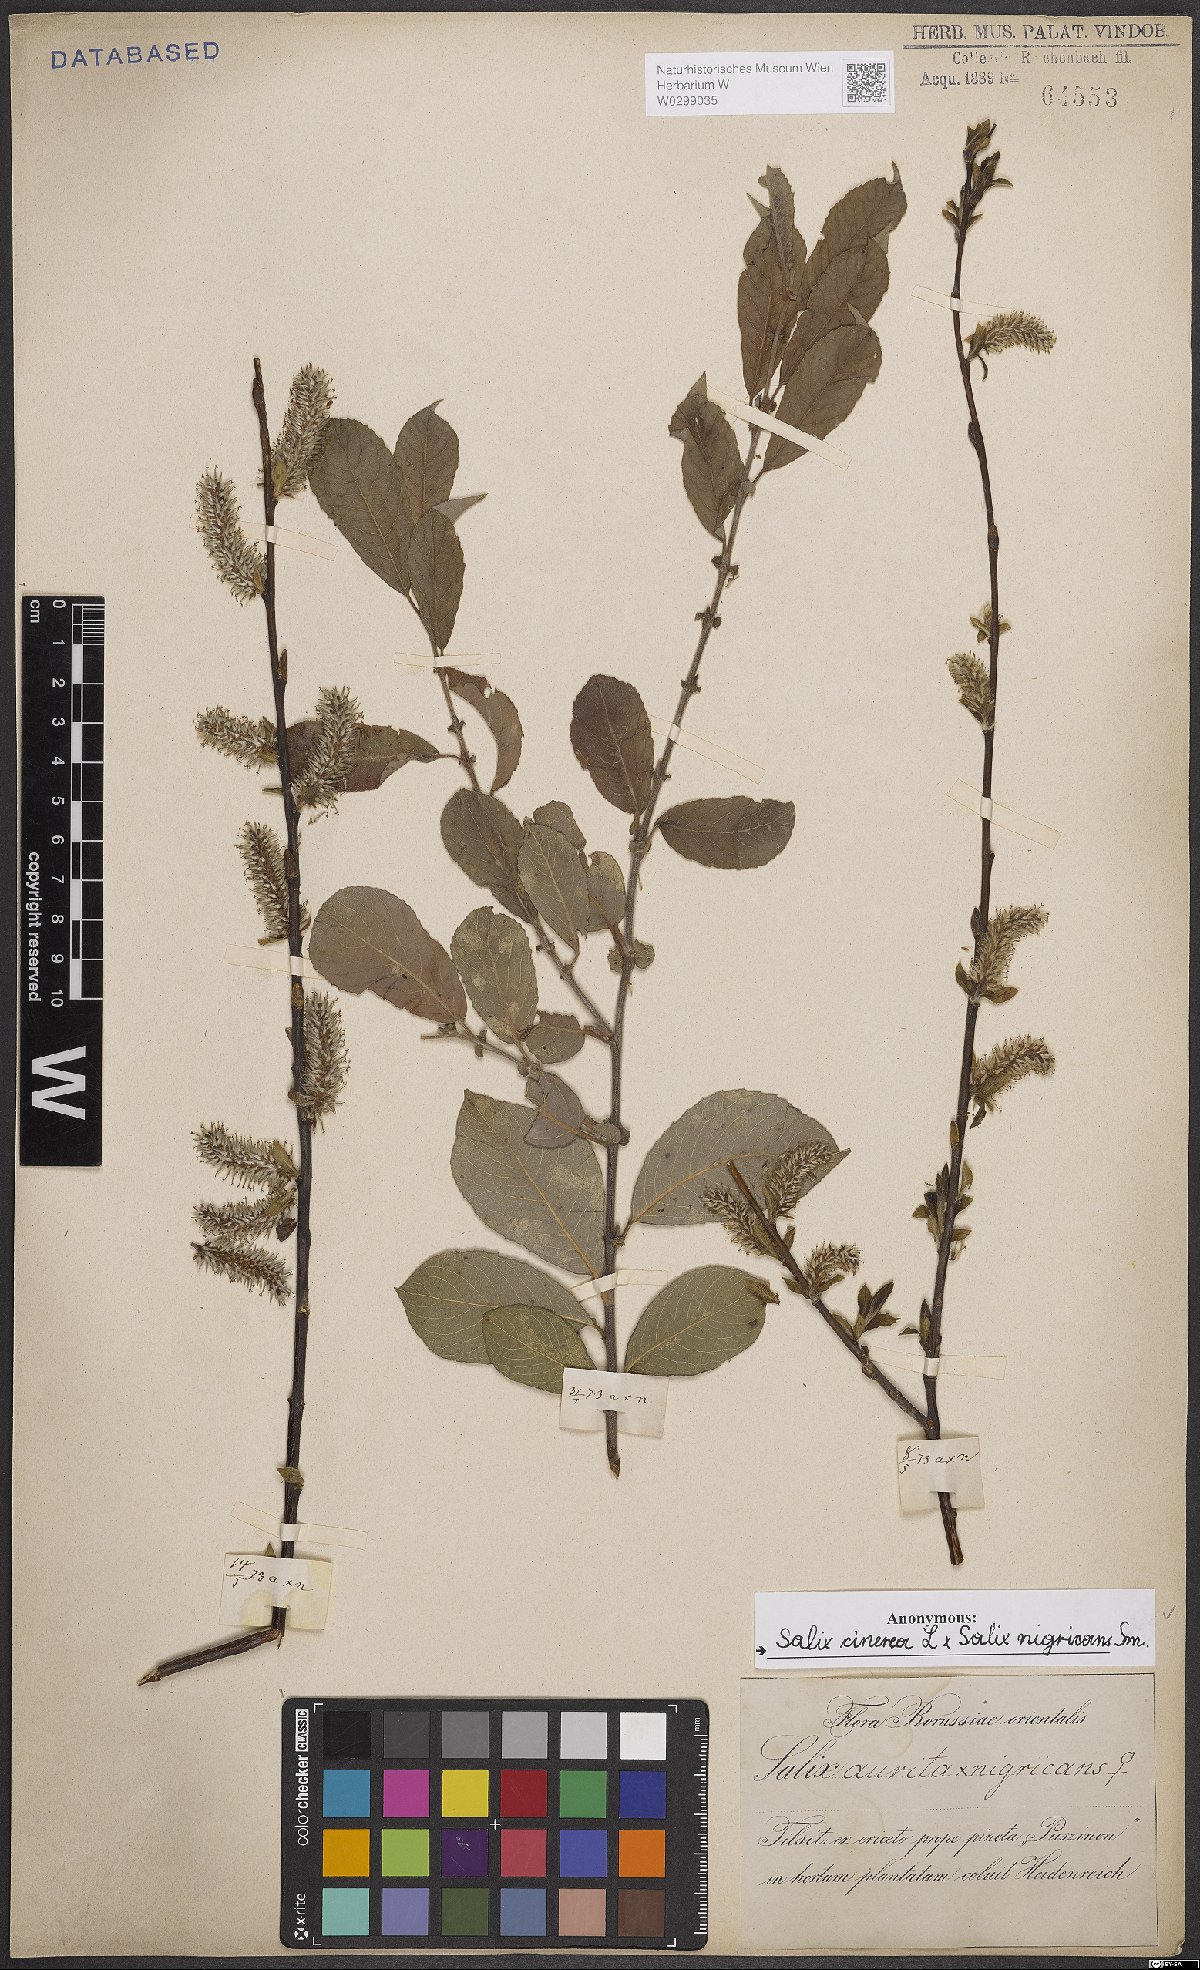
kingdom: Plantae
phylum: Tracheophyta
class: Magnoliopsida
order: Malpighiales
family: Salicaceae
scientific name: Salicaceae
